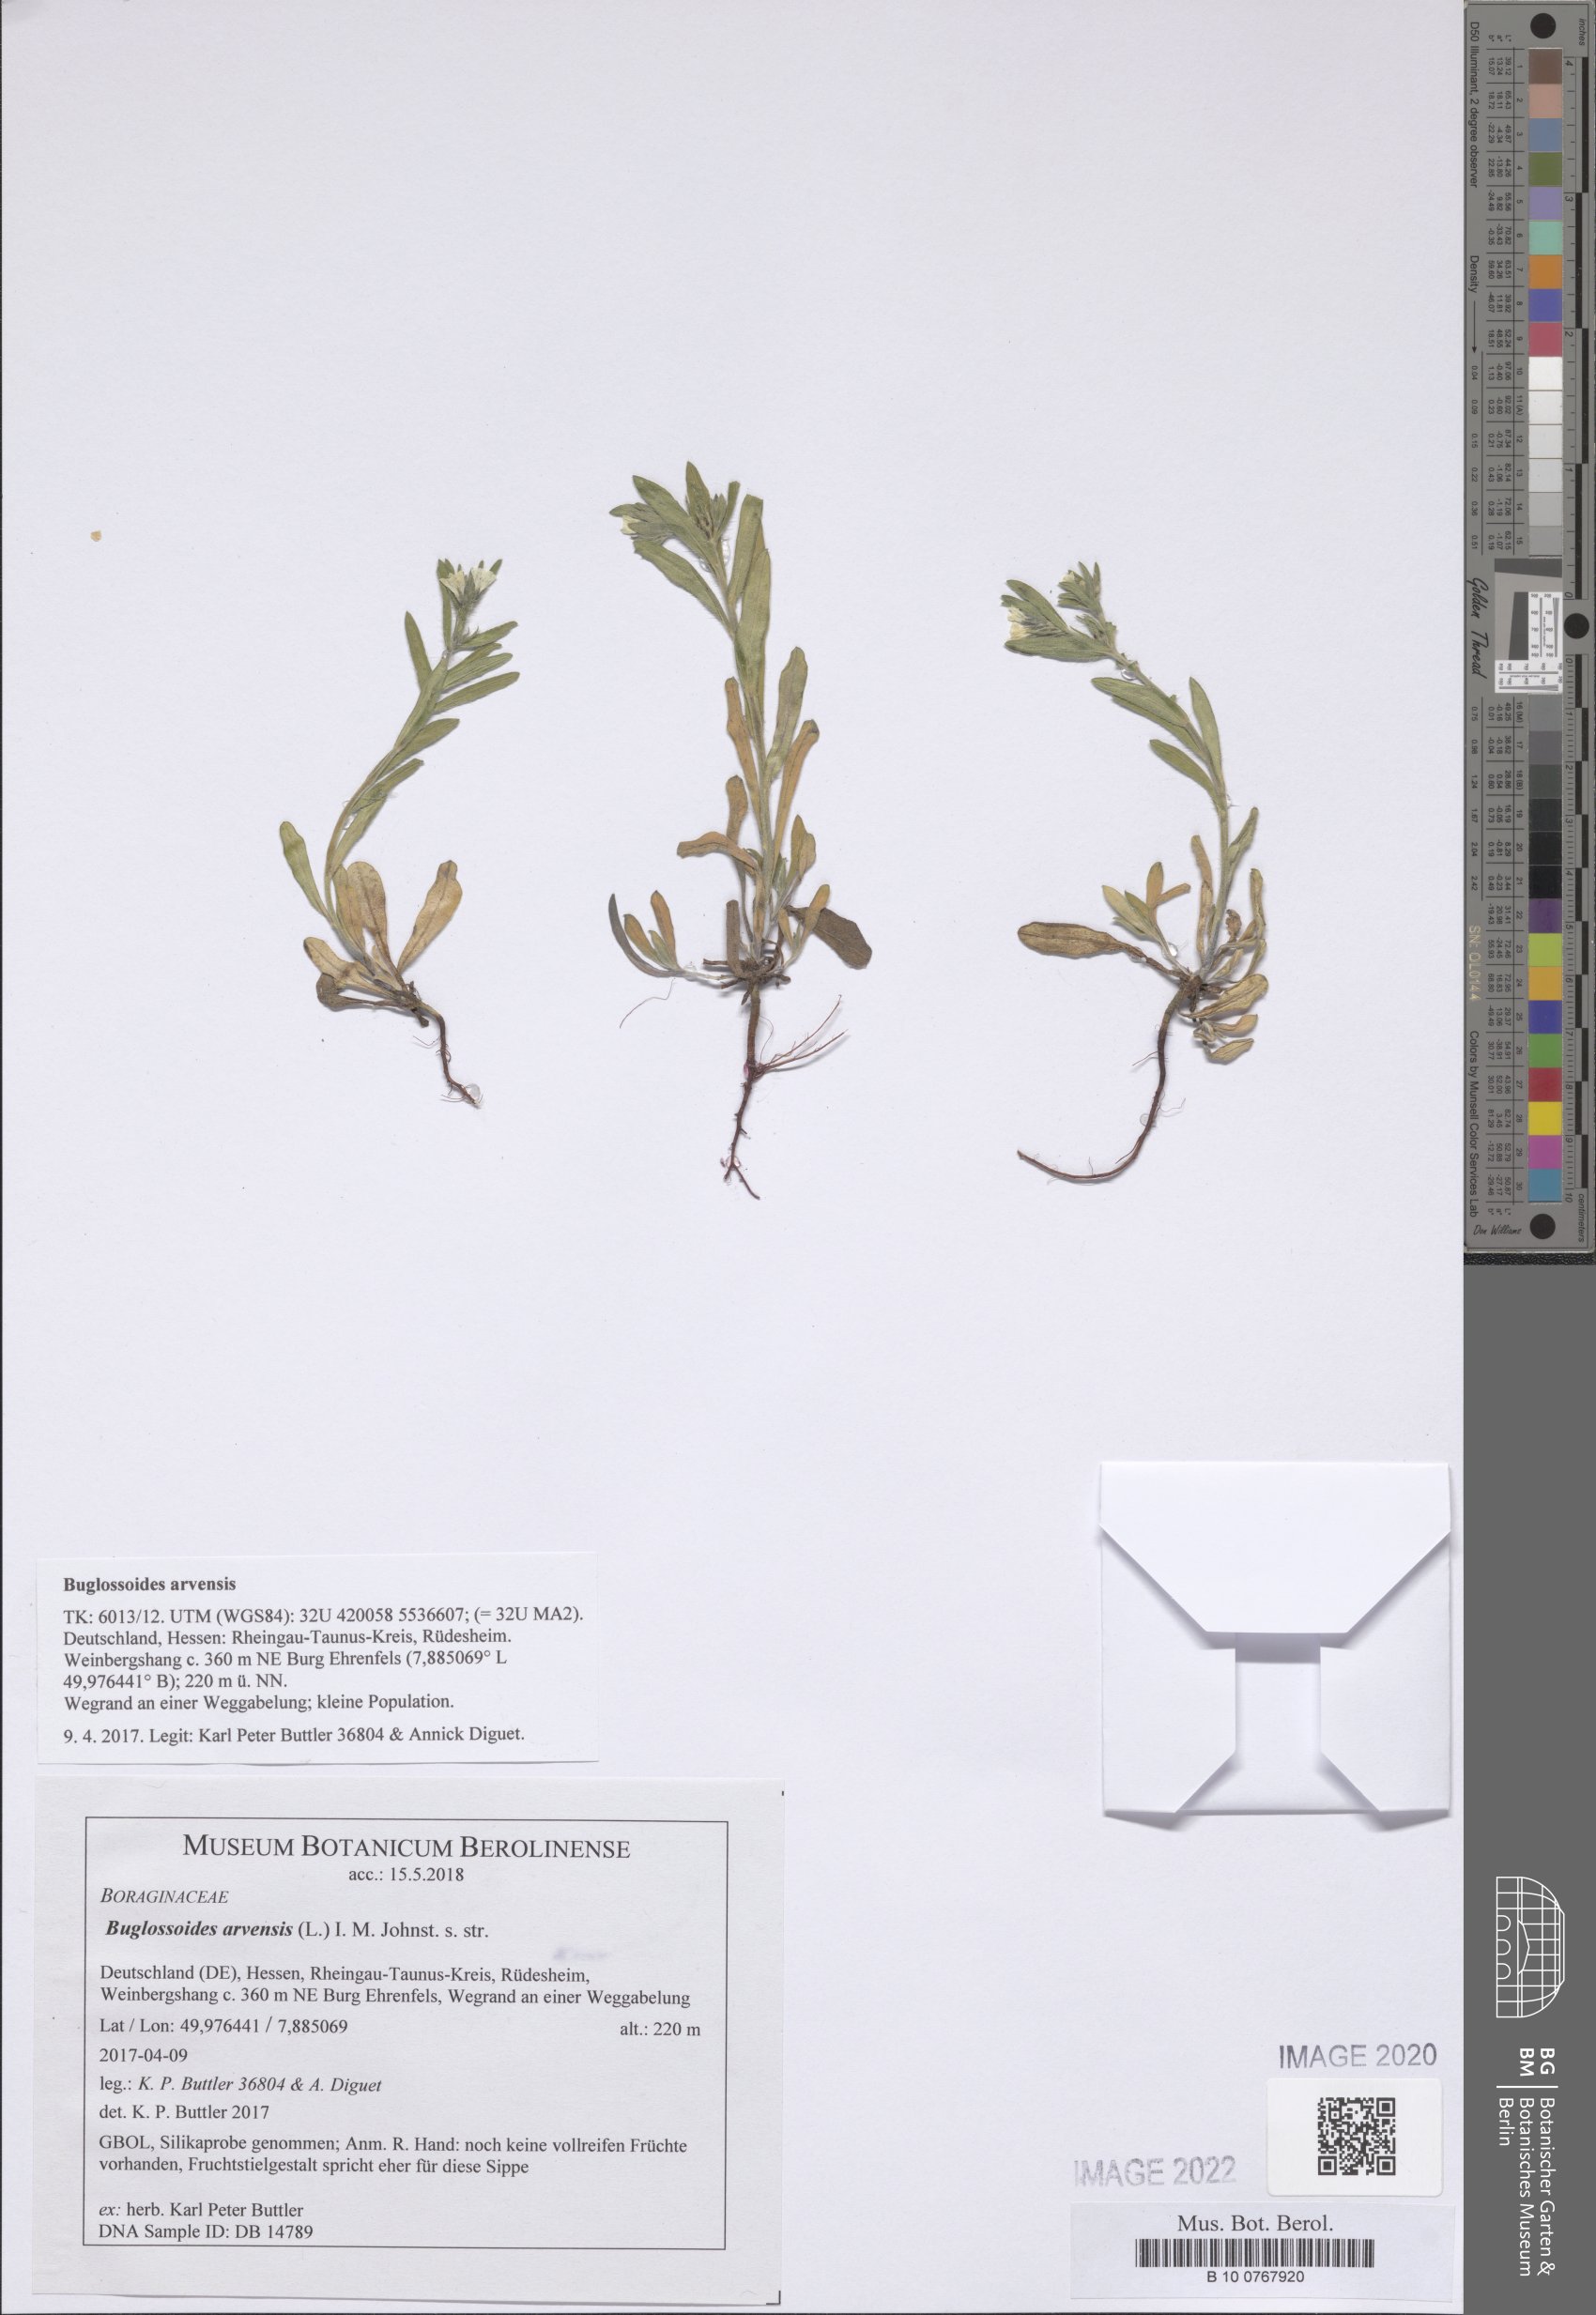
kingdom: Plantae
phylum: Tracheophyta
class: Magnoliopsida
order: Boraginales
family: Boraginaceae
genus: Buglossoides
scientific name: Buglossoides arvensis
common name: Corn gromwell
